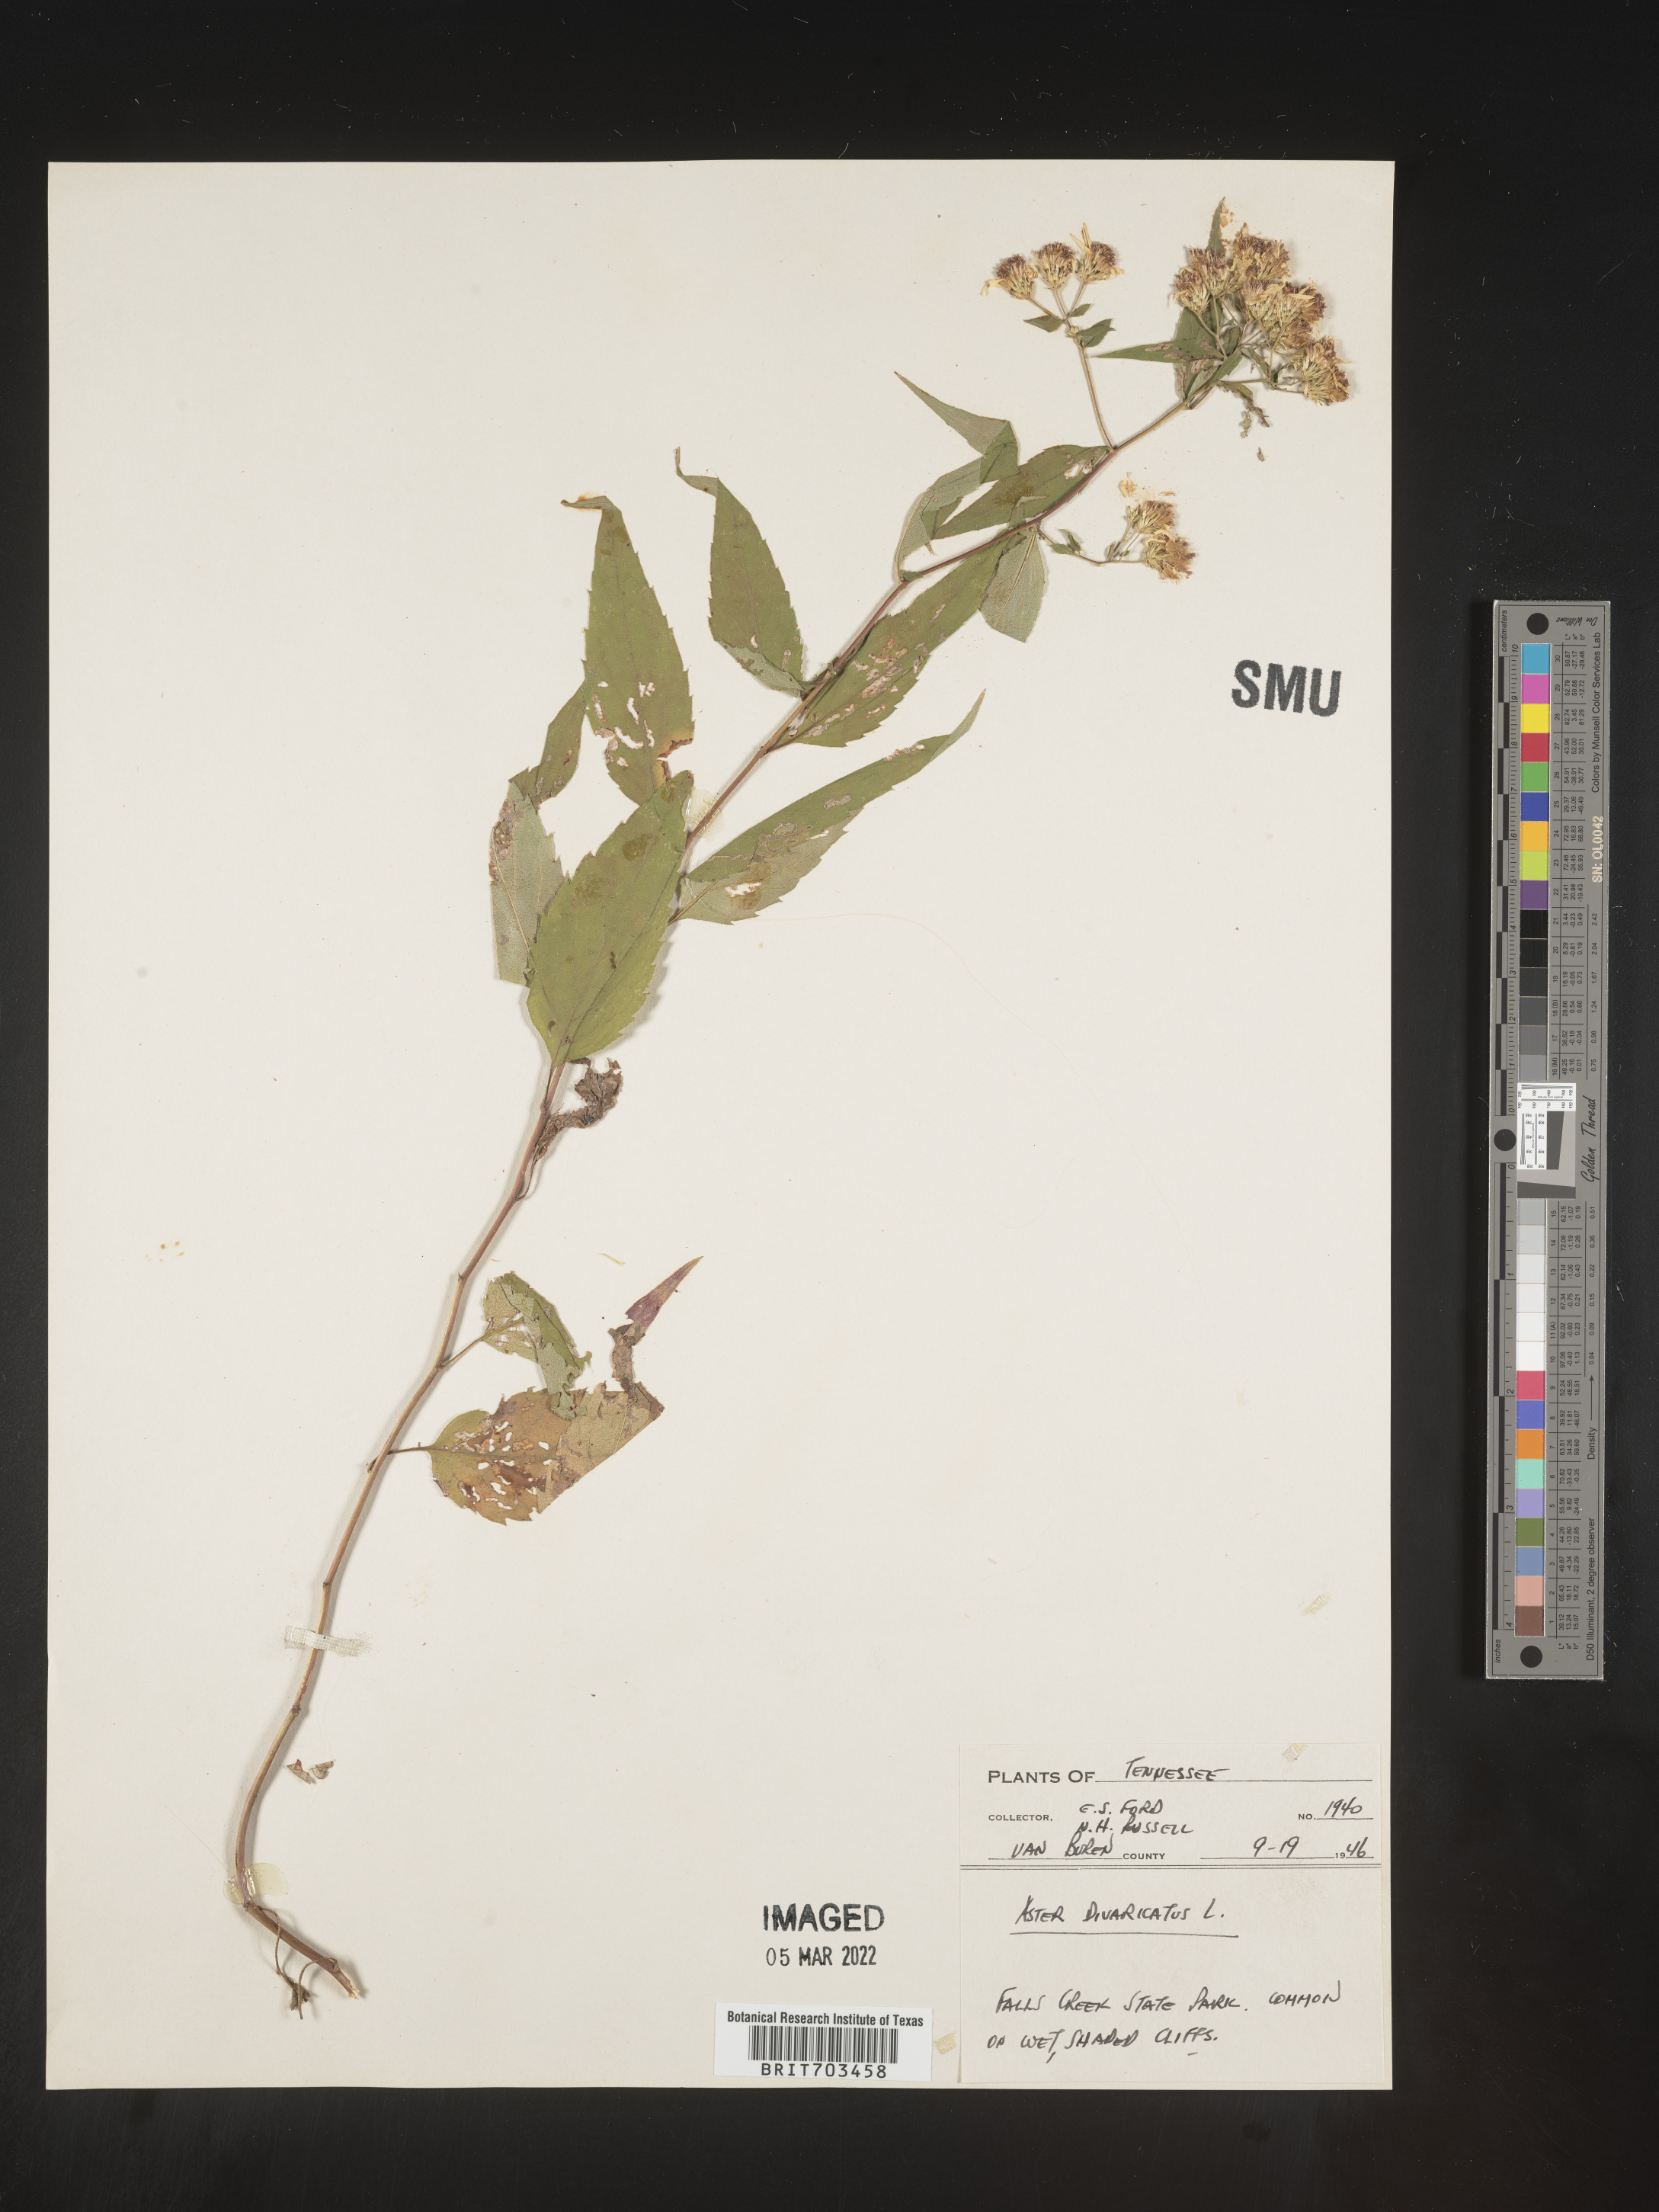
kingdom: Plantae
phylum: Tracheophyta
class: Magnoliopsida
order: Asterales
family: Asteraceae
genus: Eurybia
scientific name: Eurybia divaricata
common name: White wood aster
